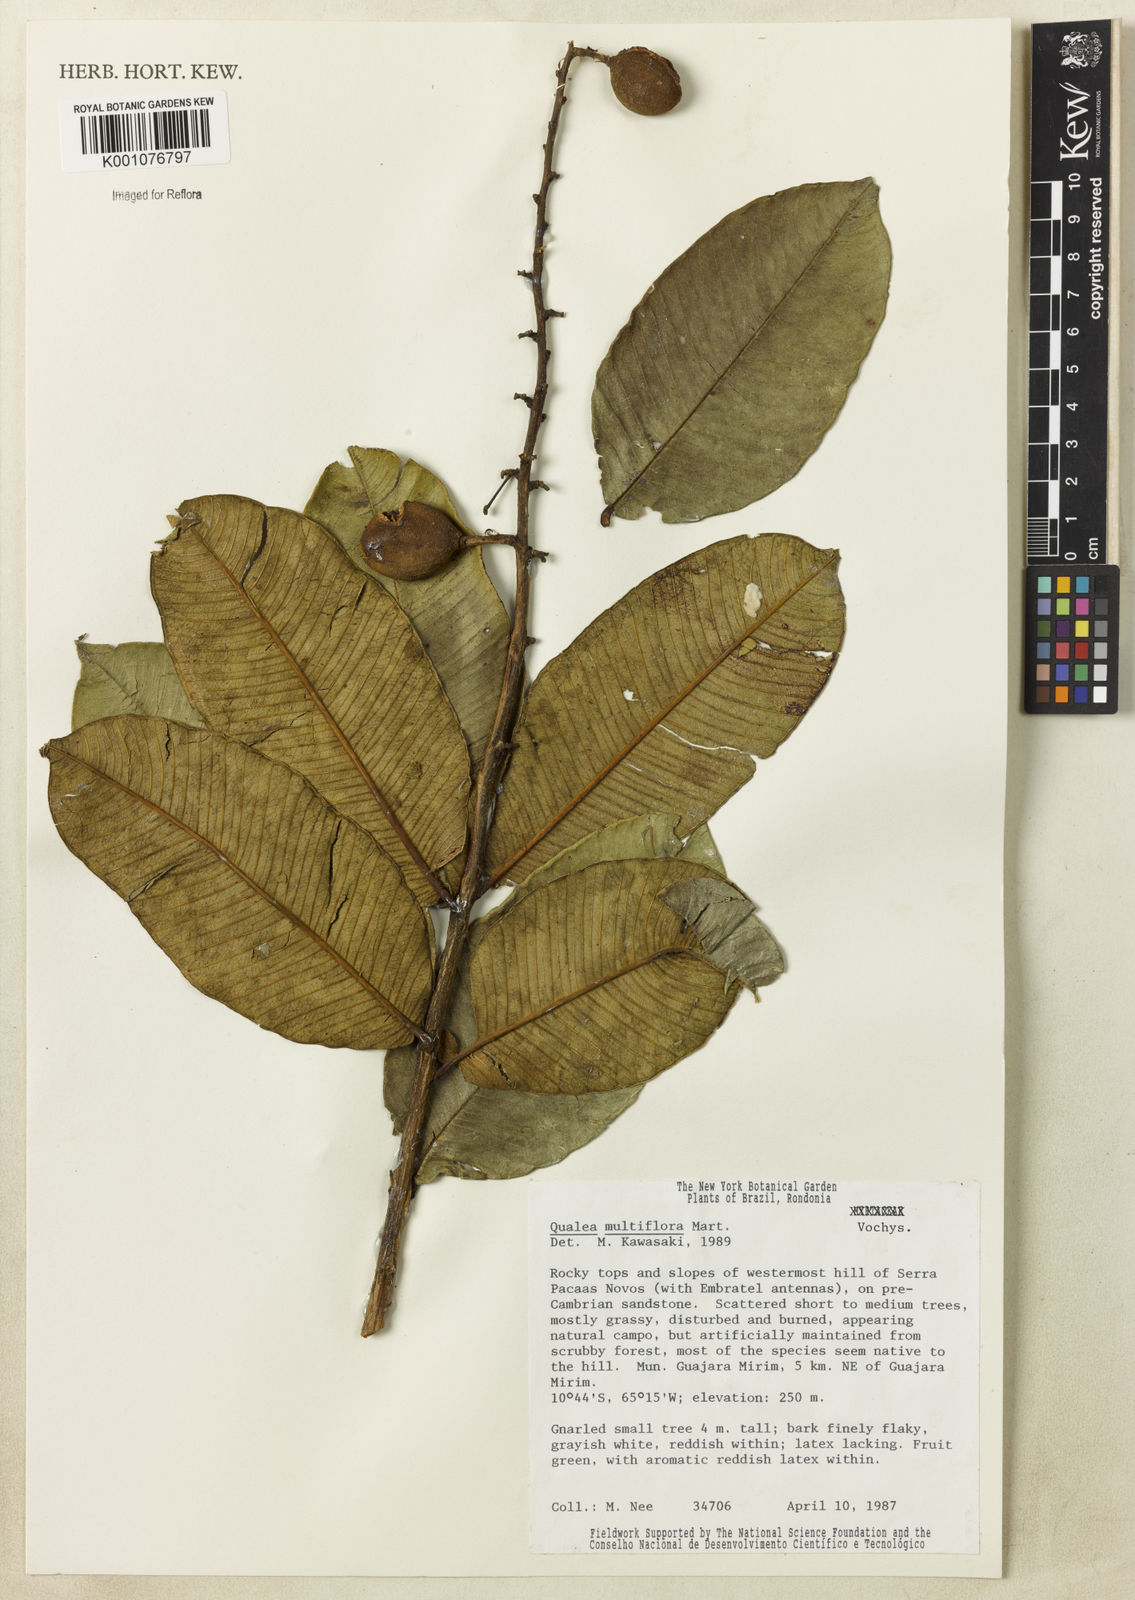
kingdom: Plantae
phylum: Tracheophyta
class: Magnoliopsida
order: Myrtales
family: Vochysiaceae
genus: Qualea
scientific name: Qualea multiflora
